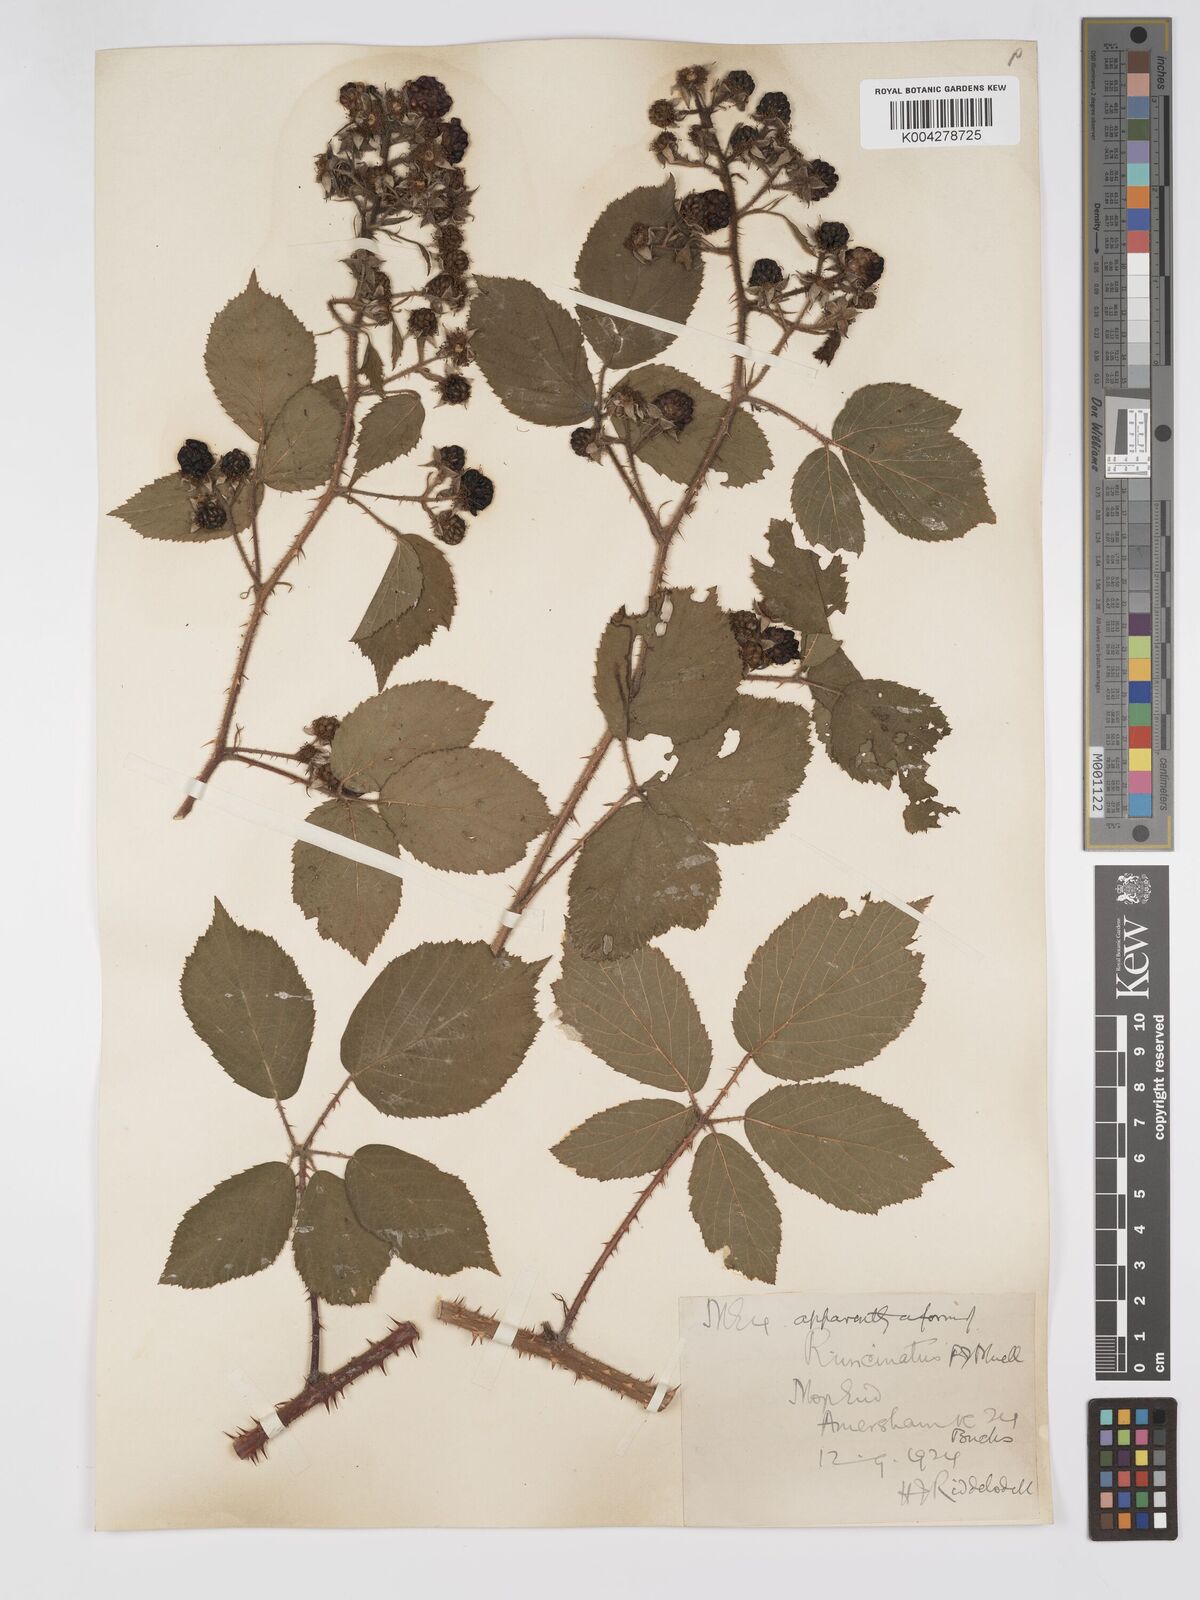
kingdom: Plantae
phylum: Tracheophyta
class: Magnoliopsida
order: Rosales
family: Rosaceae
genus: Rubus
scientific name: Rubus uncinatus
